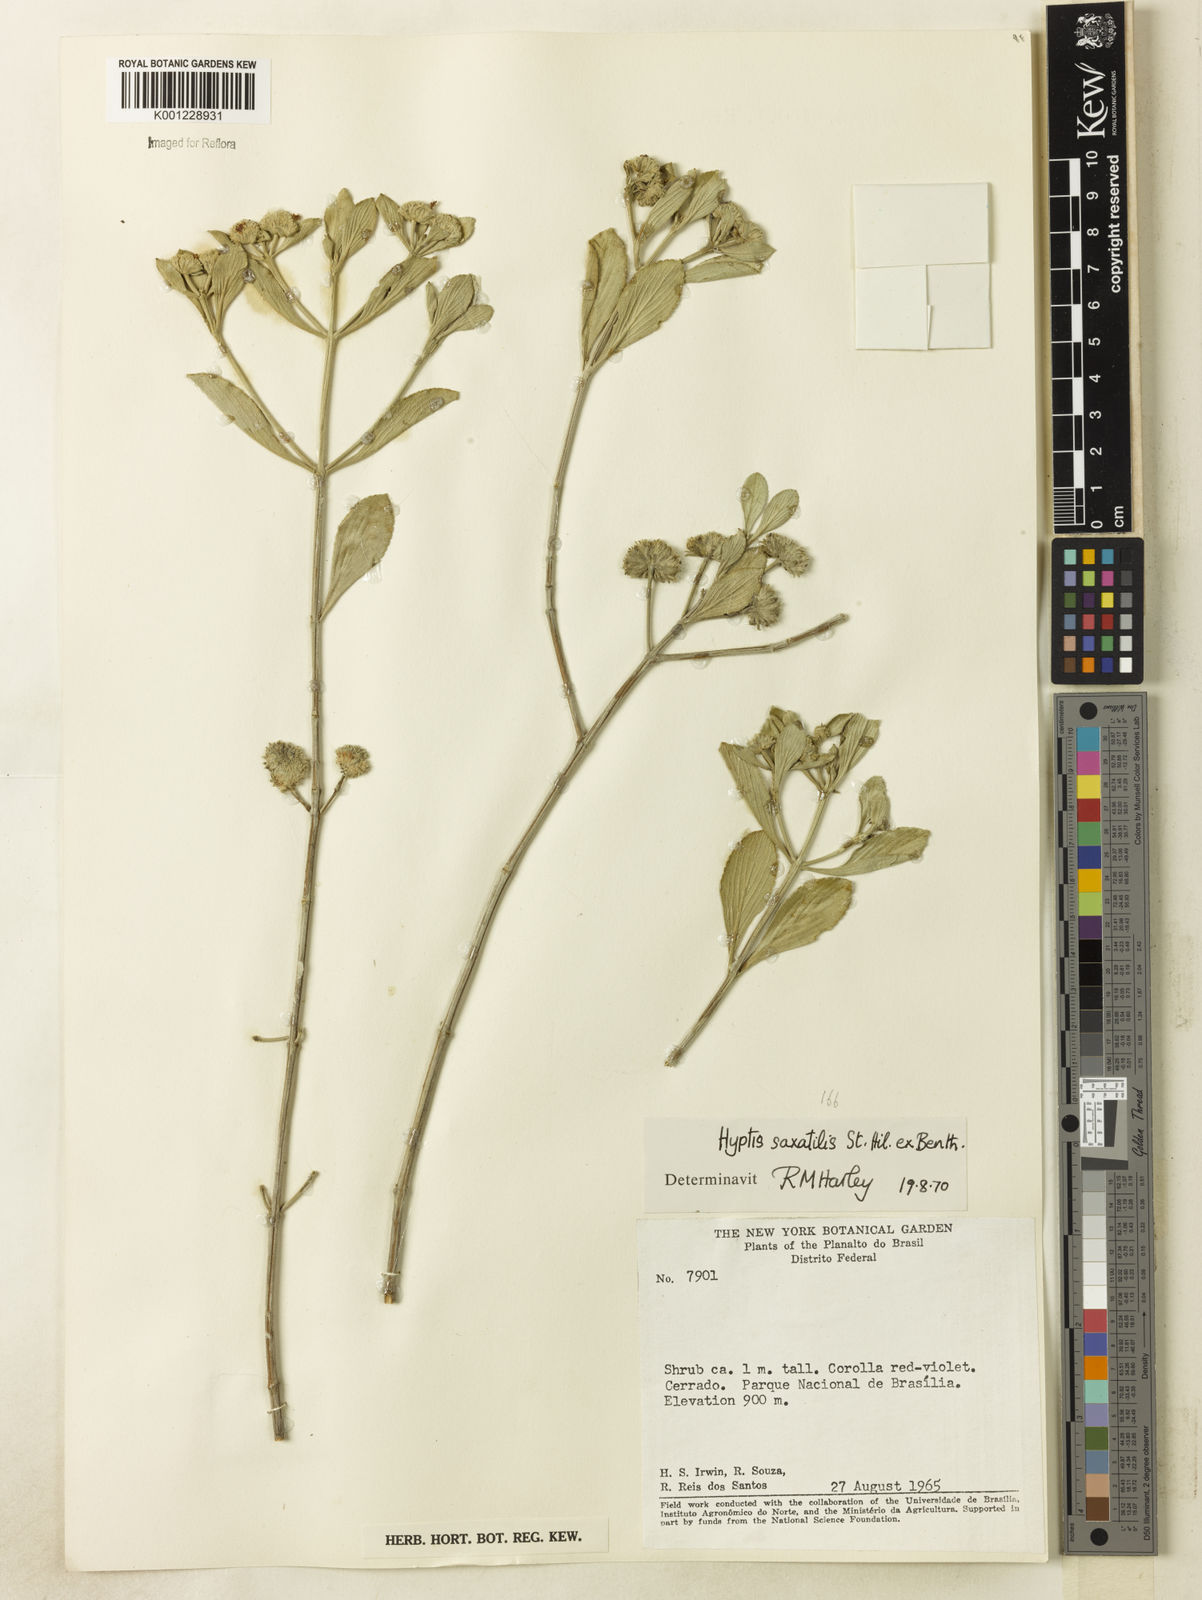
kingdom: Plantae
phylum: Tracheophyta
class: Magnoliopsida
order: Lamiales
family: Lamiaceae
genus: Hyptis
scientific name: Hyptis saxatilis
